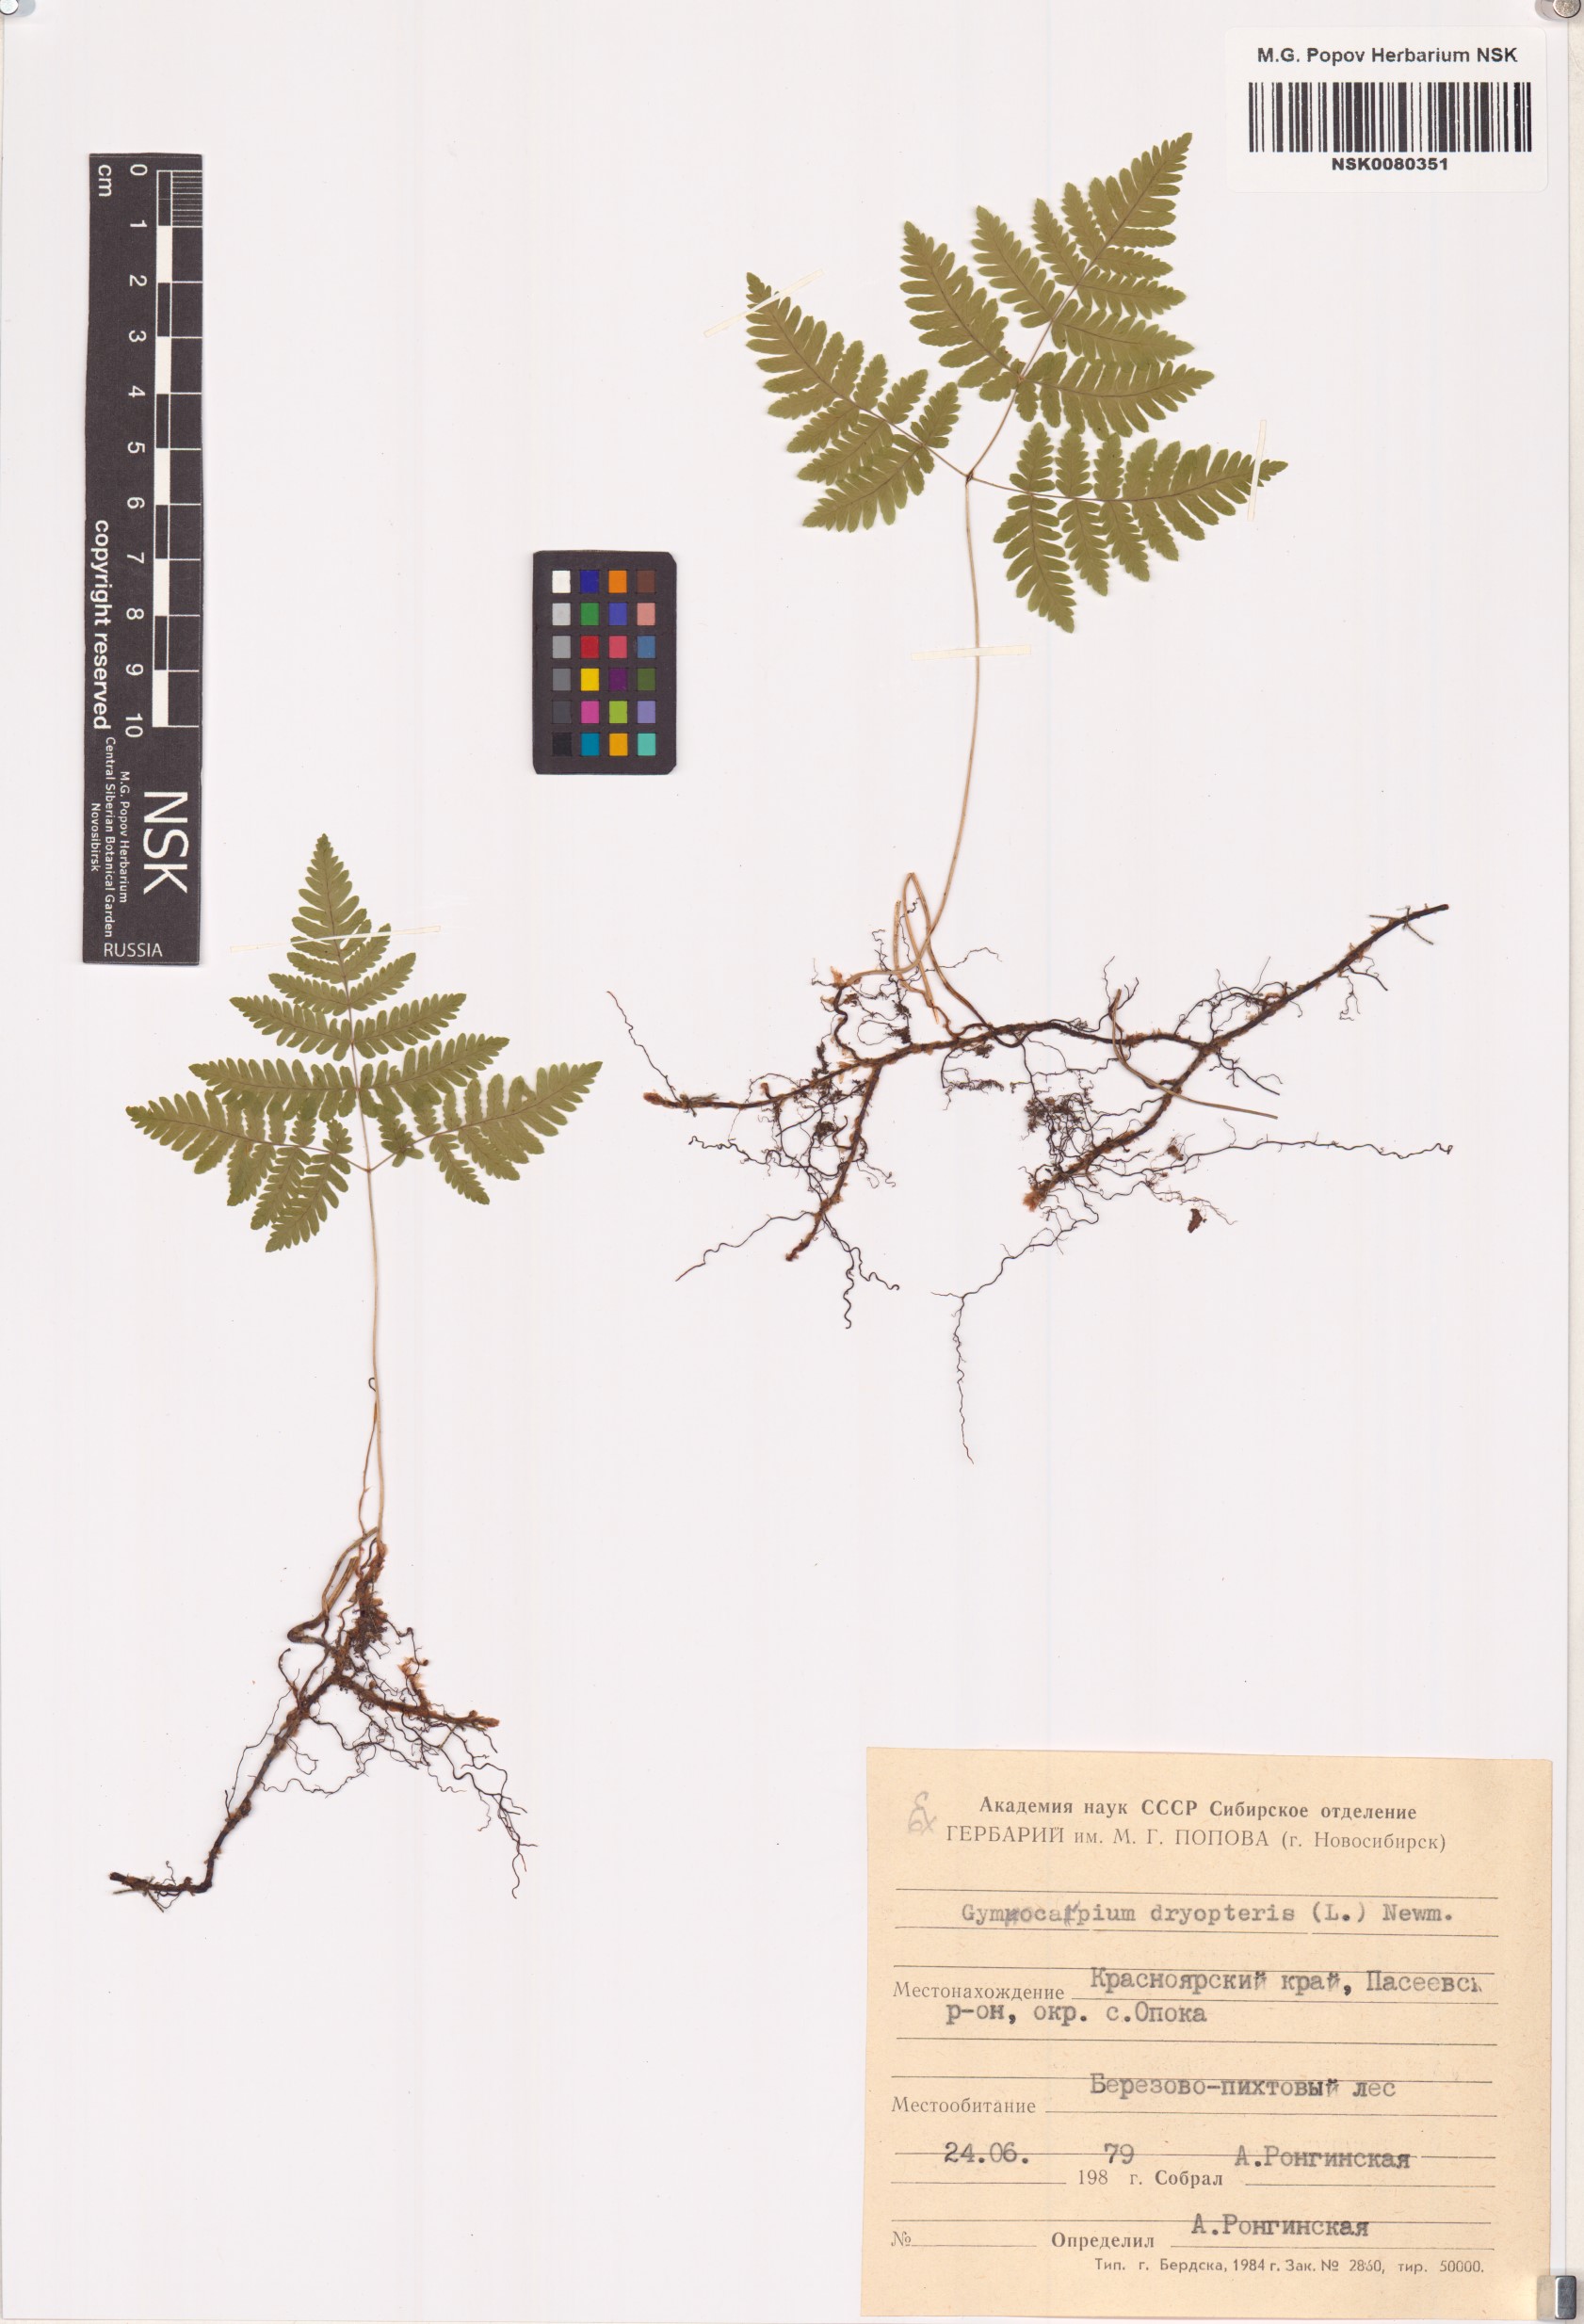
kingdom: Plantae
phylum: Tracheophyta
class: Polypodiopsida
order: Polypodiales
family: Cystopteridaceae
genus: Gymnocarpium
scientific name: Gymnocarpium dryopteris
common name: Oak fern
